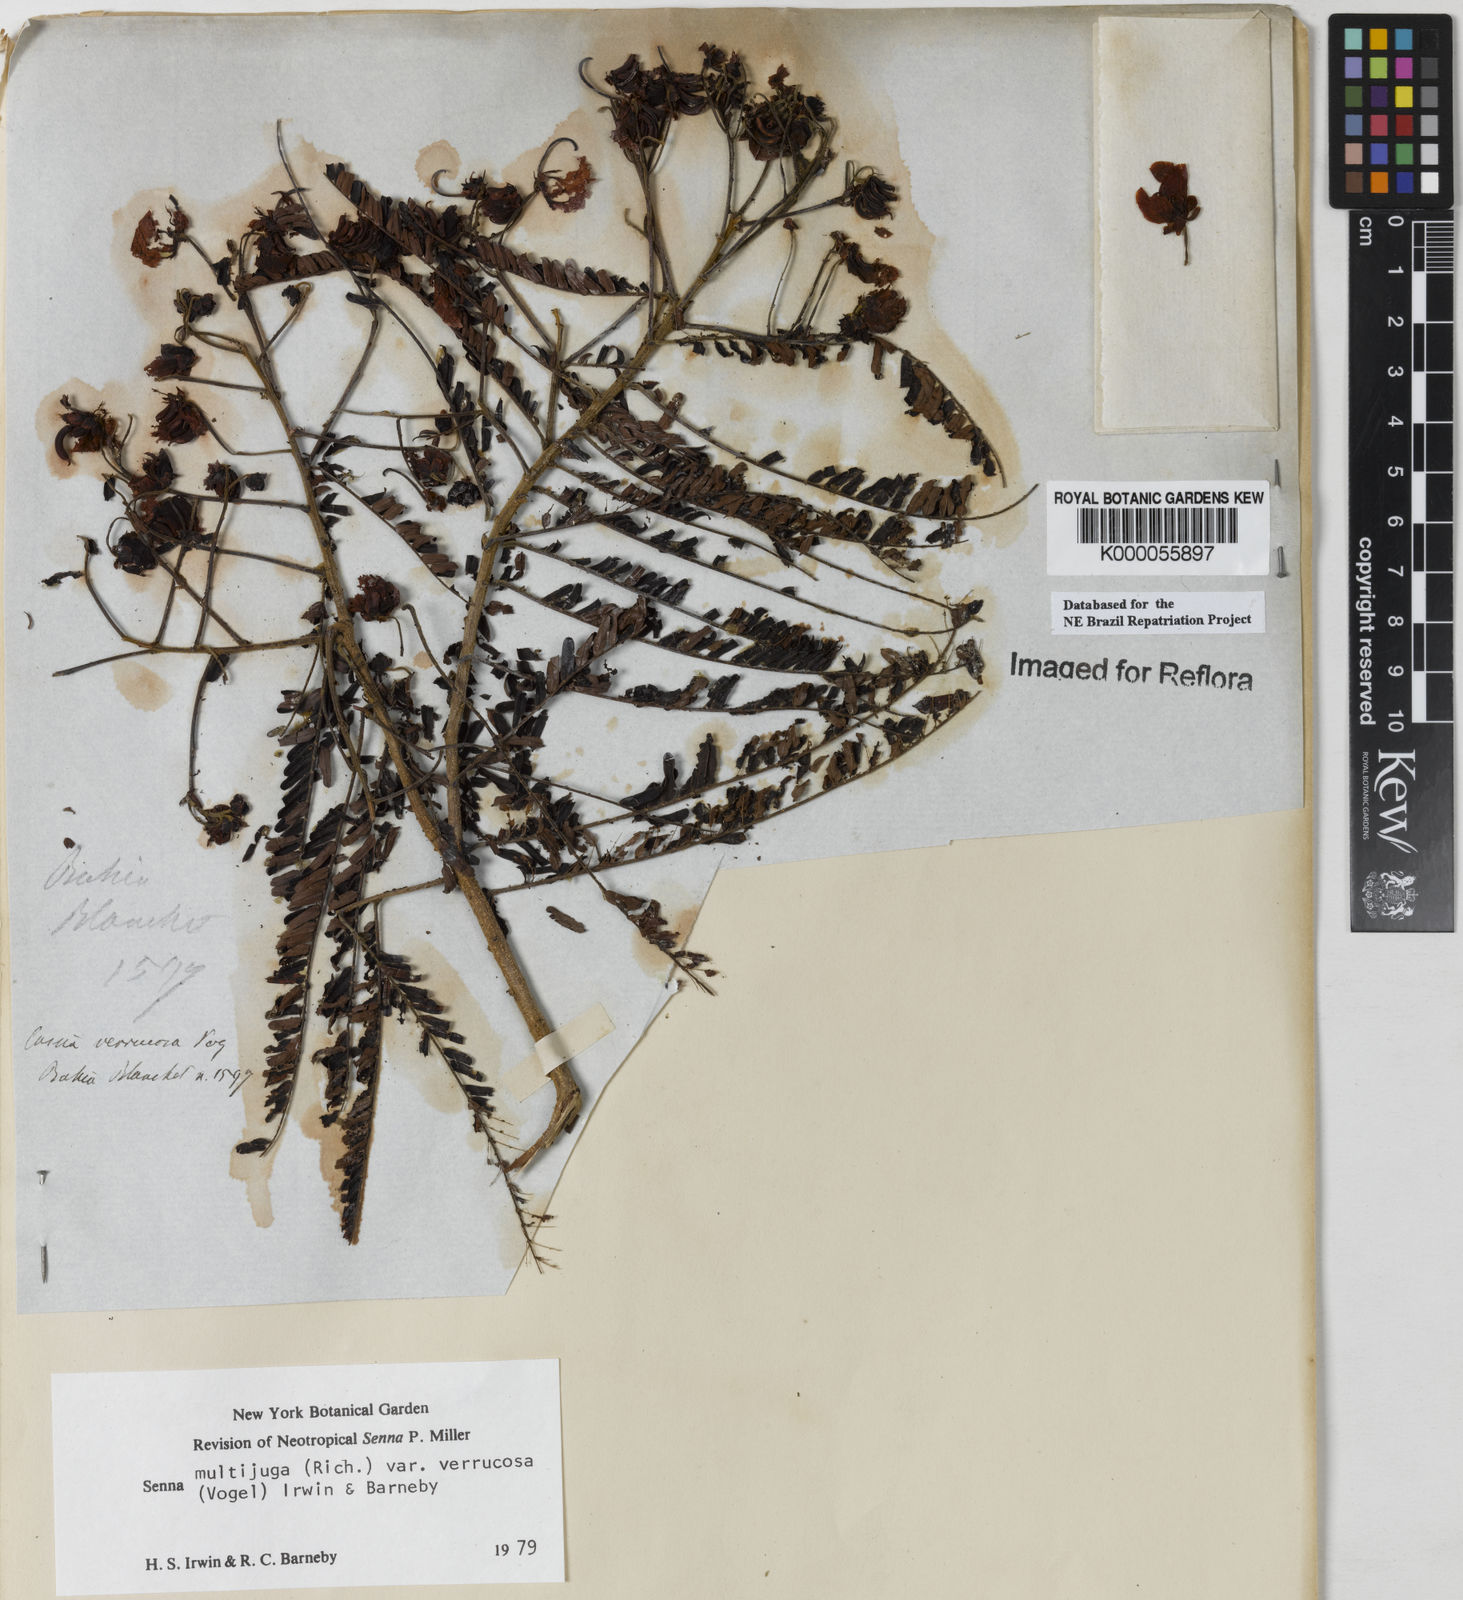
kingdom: Plantae
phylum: Tracheophyta
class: Magnoliopsida
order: Fabales
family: Fabaceae
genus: Senna
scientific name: Senna multijuga
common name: False sicklepod
